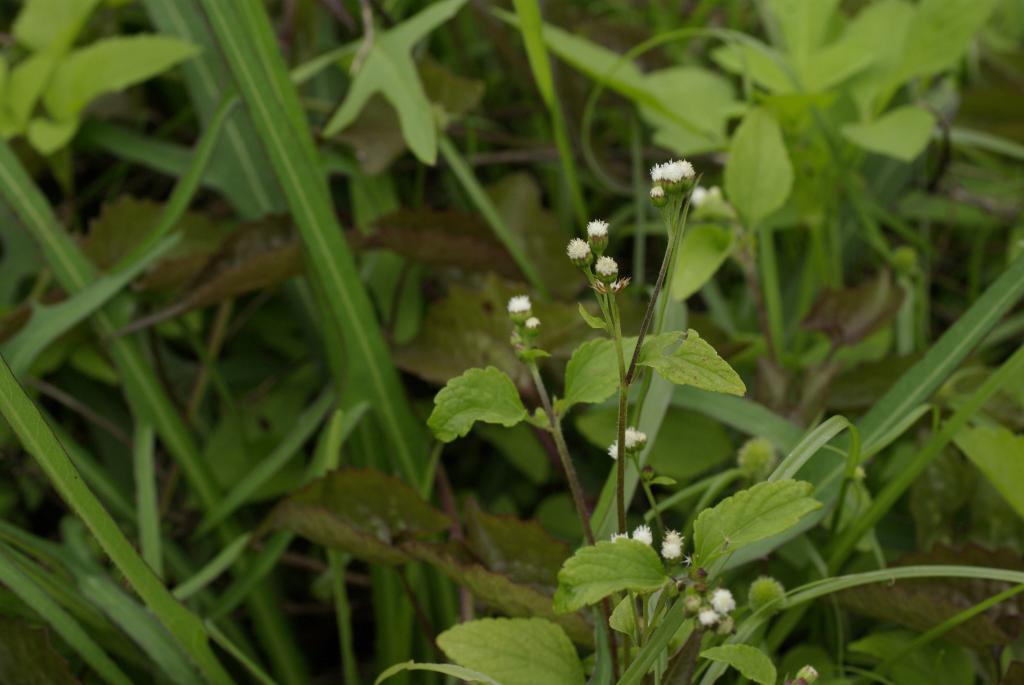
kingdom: Plantae
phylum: Tracheophyta
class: Magnoliopsida
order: Asterales
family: Asteraceae
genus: Ageratum
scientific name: Ageratum conyzoides
